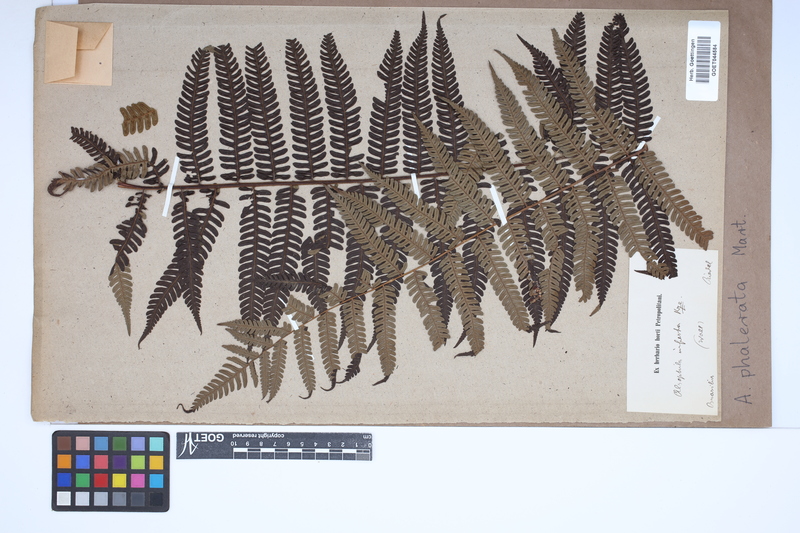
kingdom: Plantae
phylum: Tracheophyta
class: Polypodiopsida
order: Cyatheales
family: Cyatheaceae
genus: Cyathea
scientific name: Cyathea phalerata
